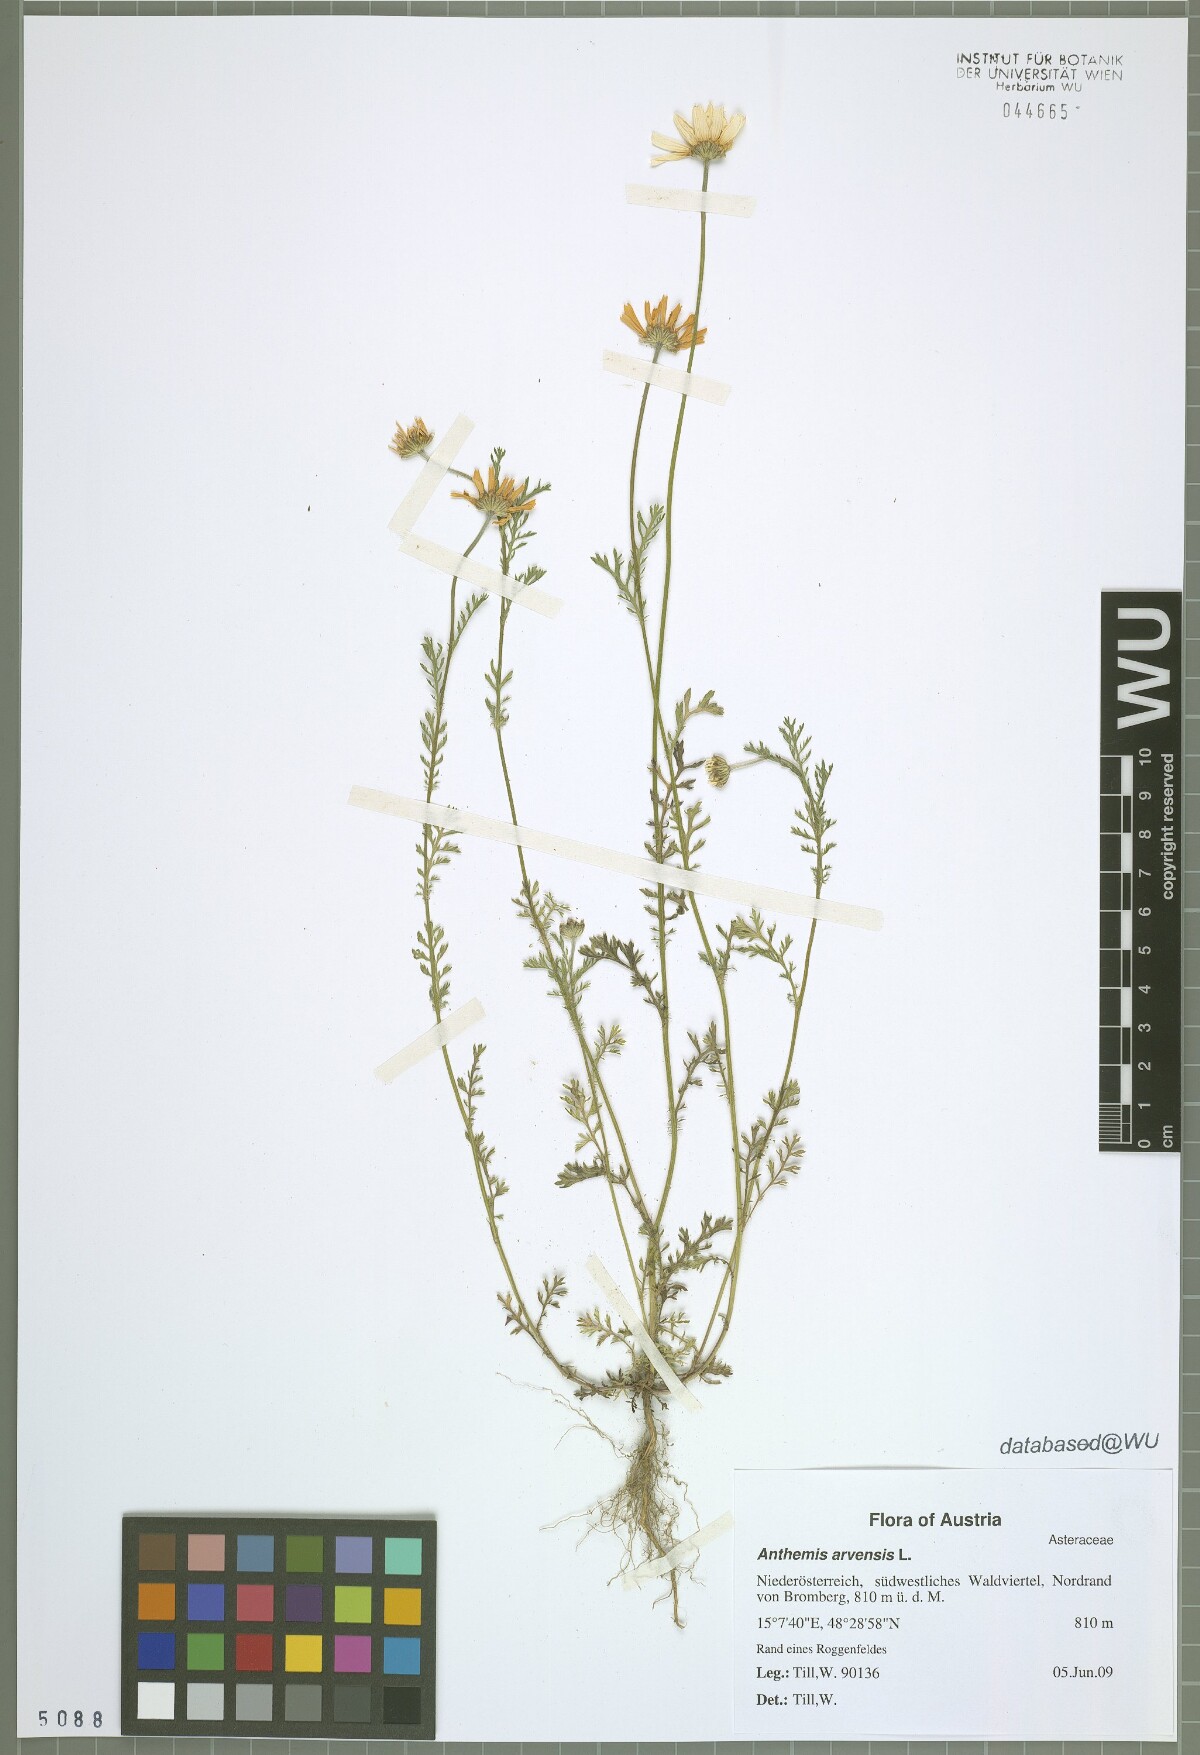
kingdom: Plantae
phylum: Tracheophyta
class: Magnoliopsida
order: Asterales
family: Asteraceae
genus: Anthemis
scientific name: Anthemis arvensis
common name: Corn chamomile
